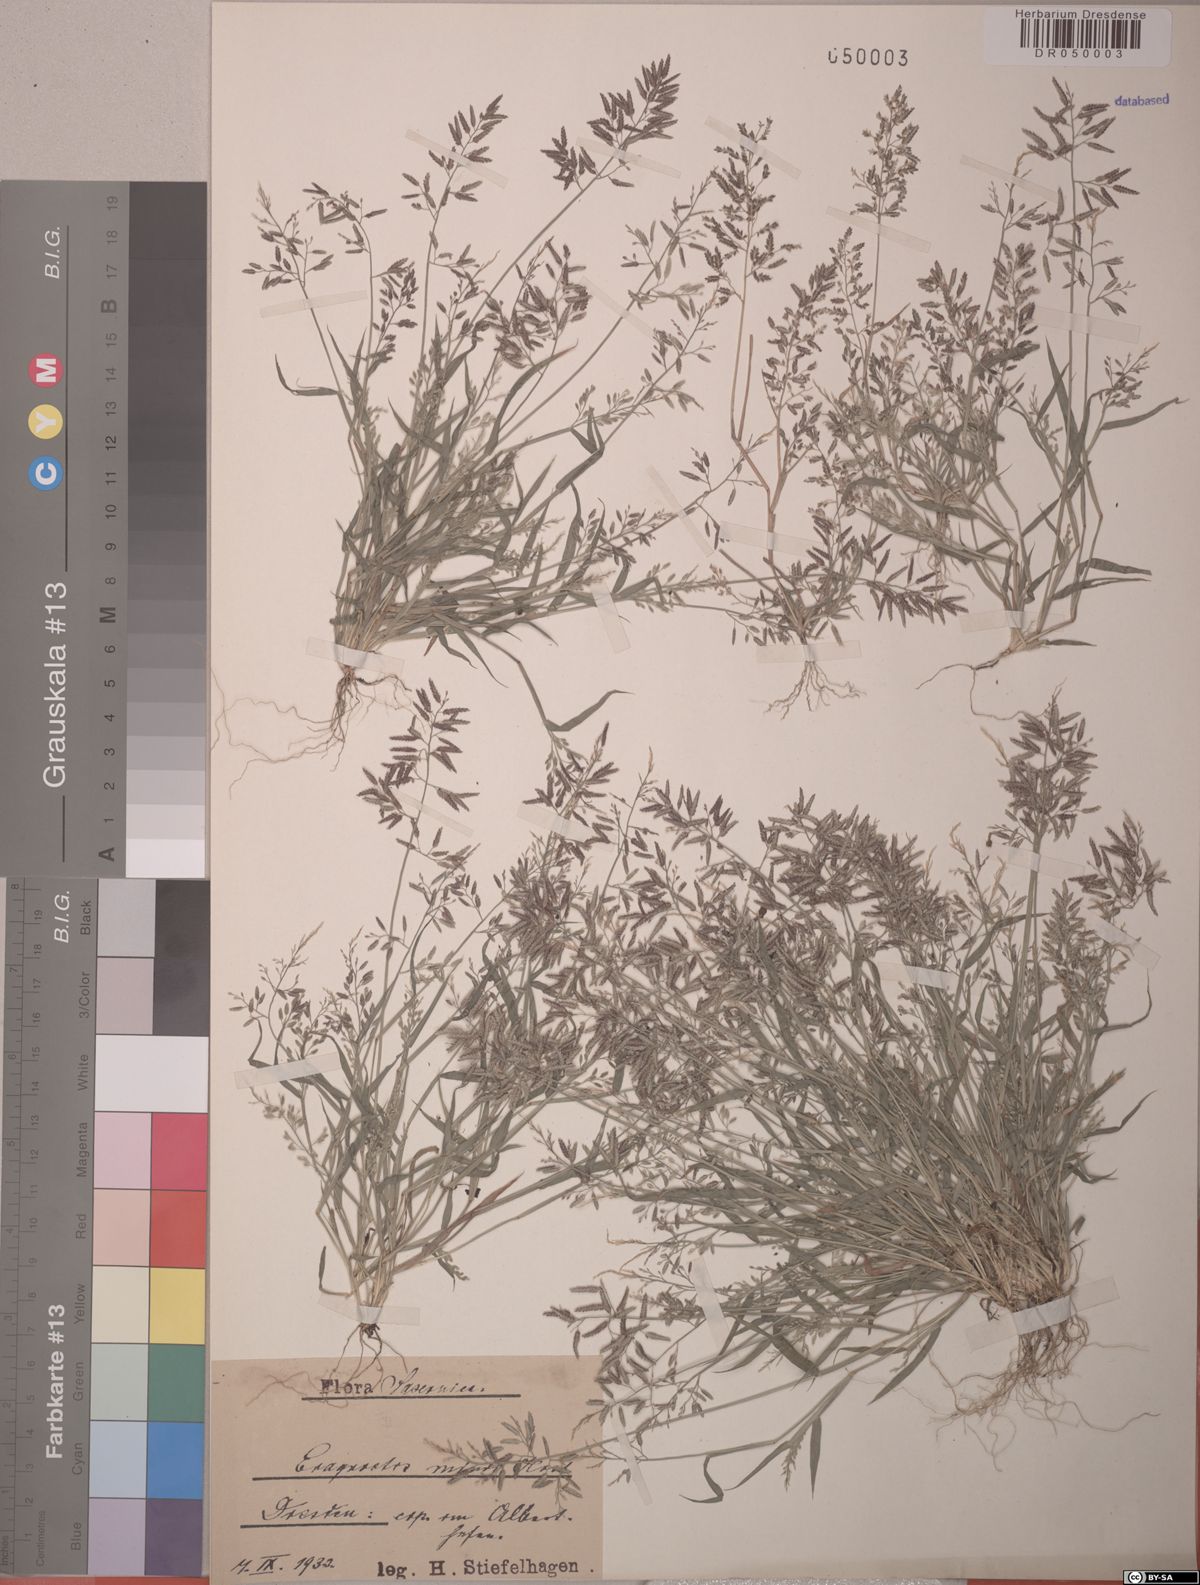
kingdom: Plantae
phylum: Tracheophyta
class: Liliopsida
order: Poales
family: Poaceae
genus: Eragrostis
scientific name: Eragrostis minor
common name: Small love-grass
